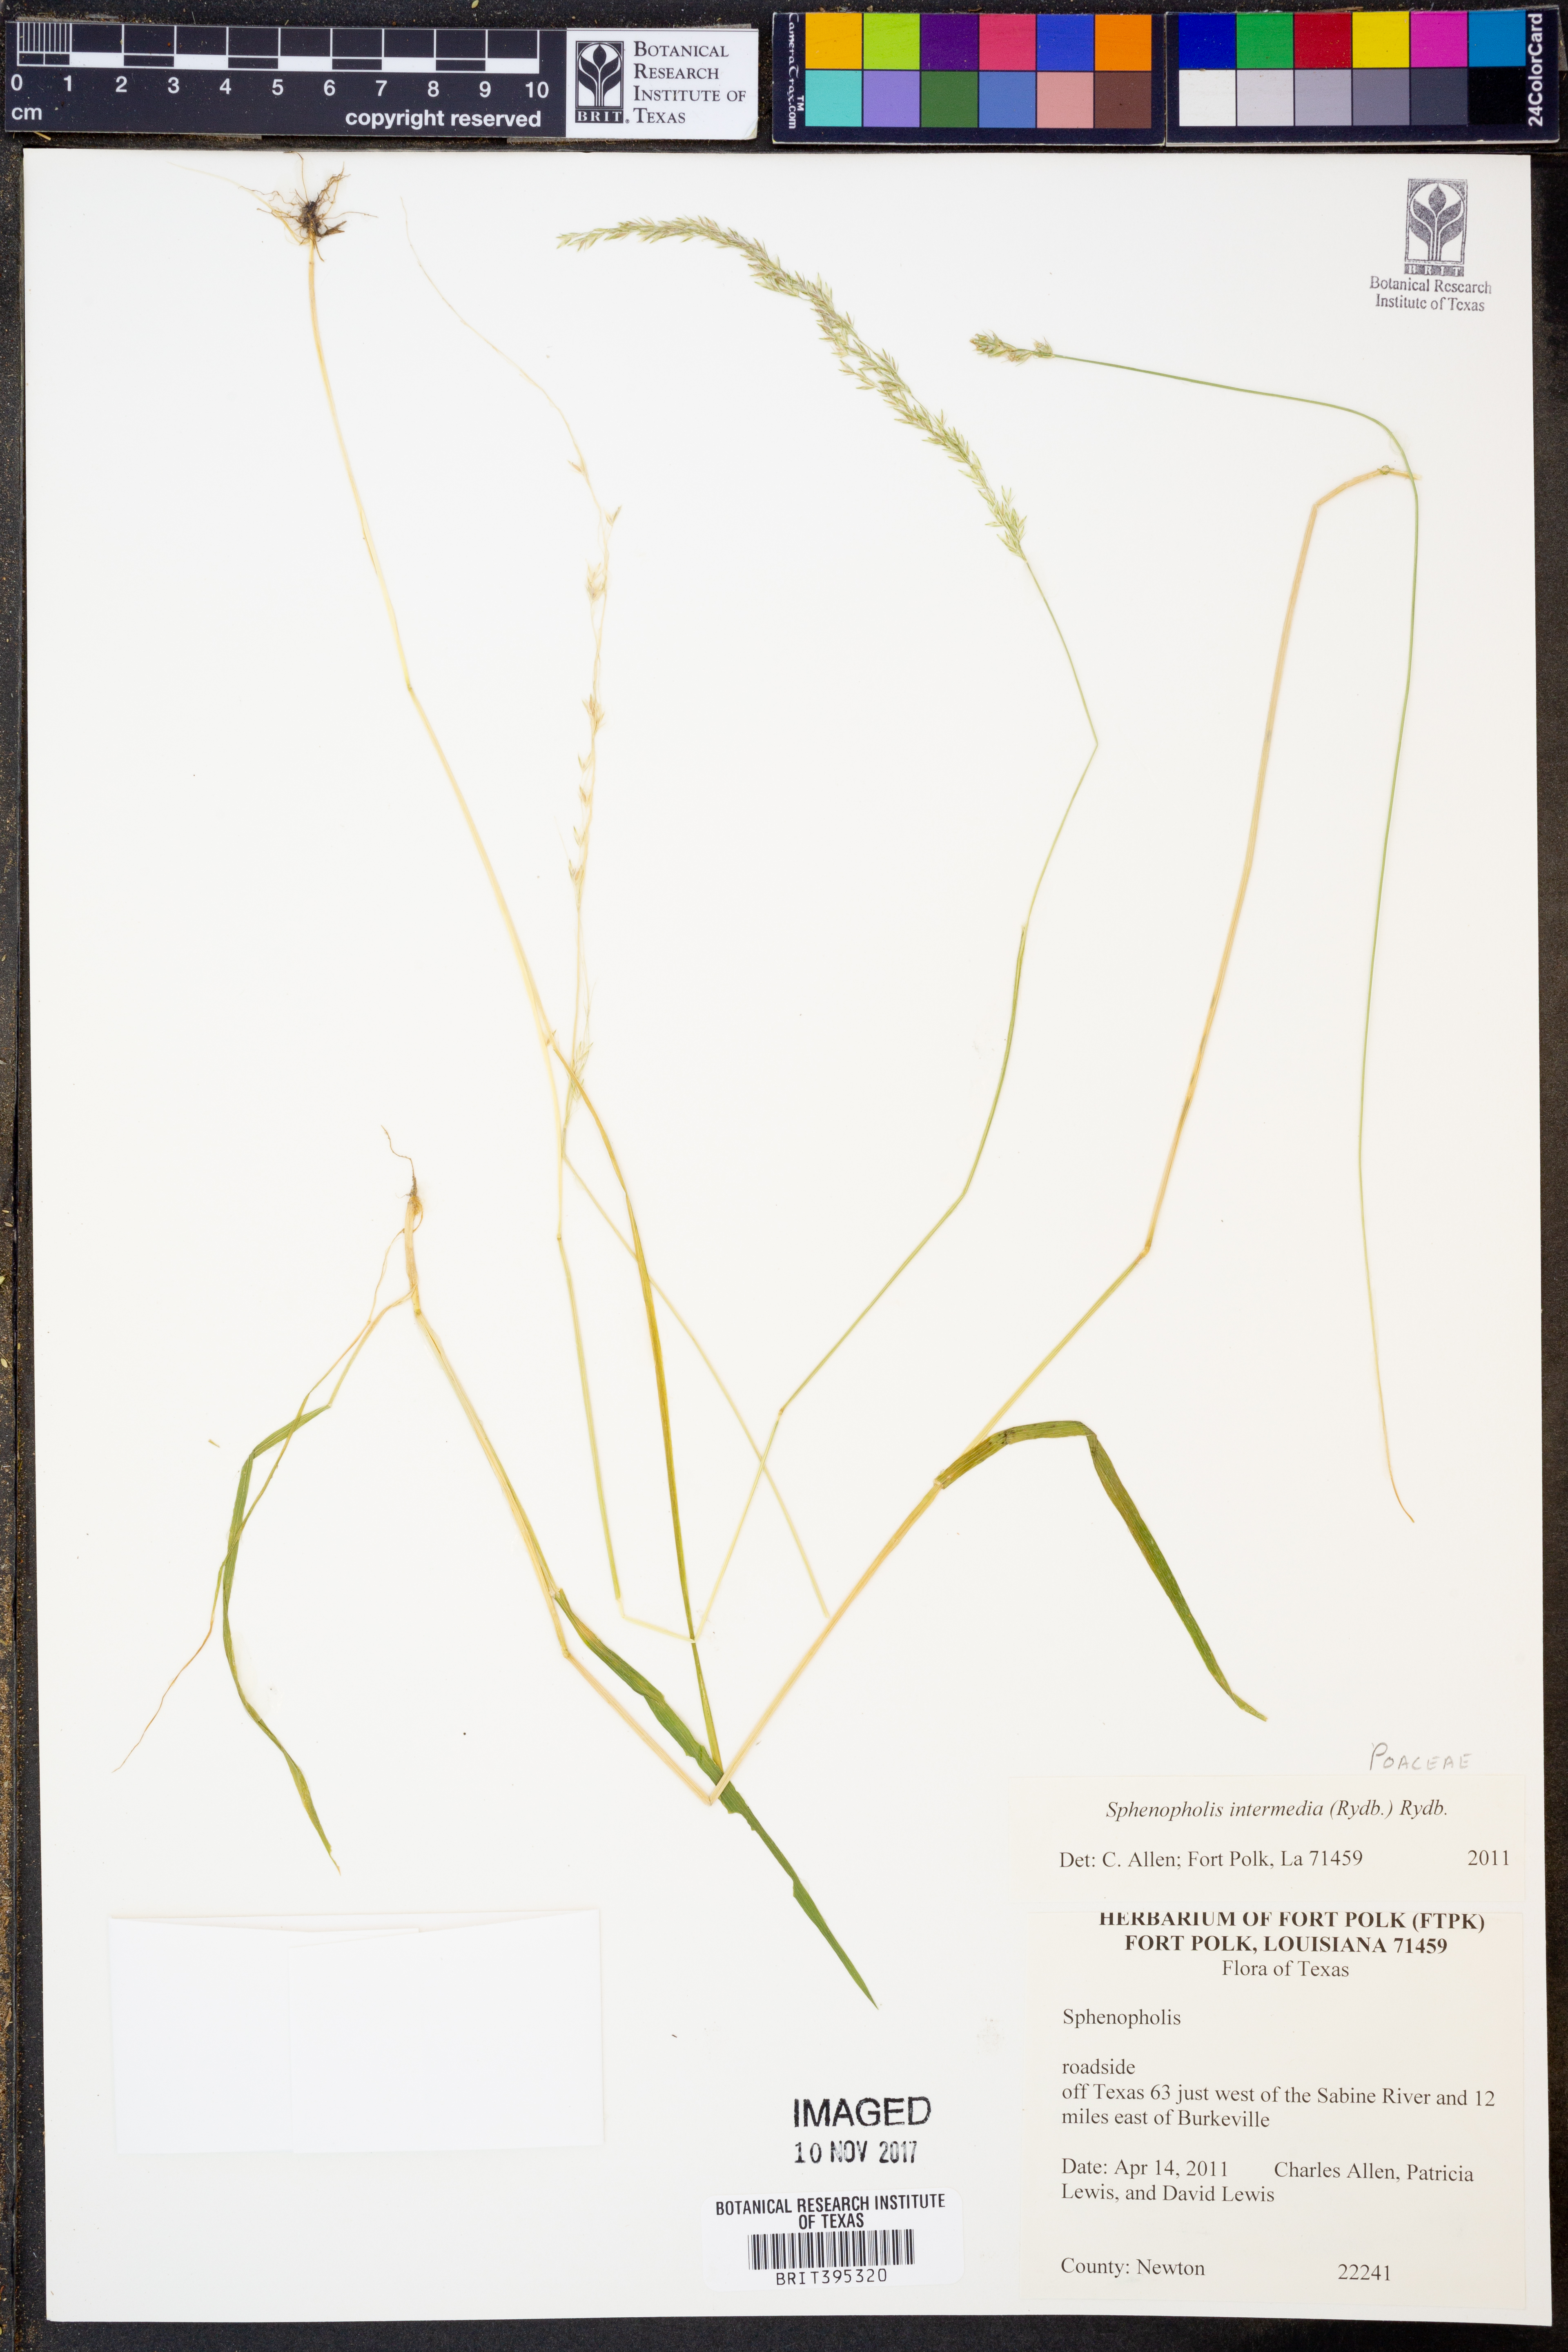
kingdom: Plantae
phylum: Tracheophyta
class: Liliopsida
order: Poales
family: Poaceae
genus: Sphenopholis
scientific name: Sphenopholis intermedia
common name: Intermediate eaton's grass
